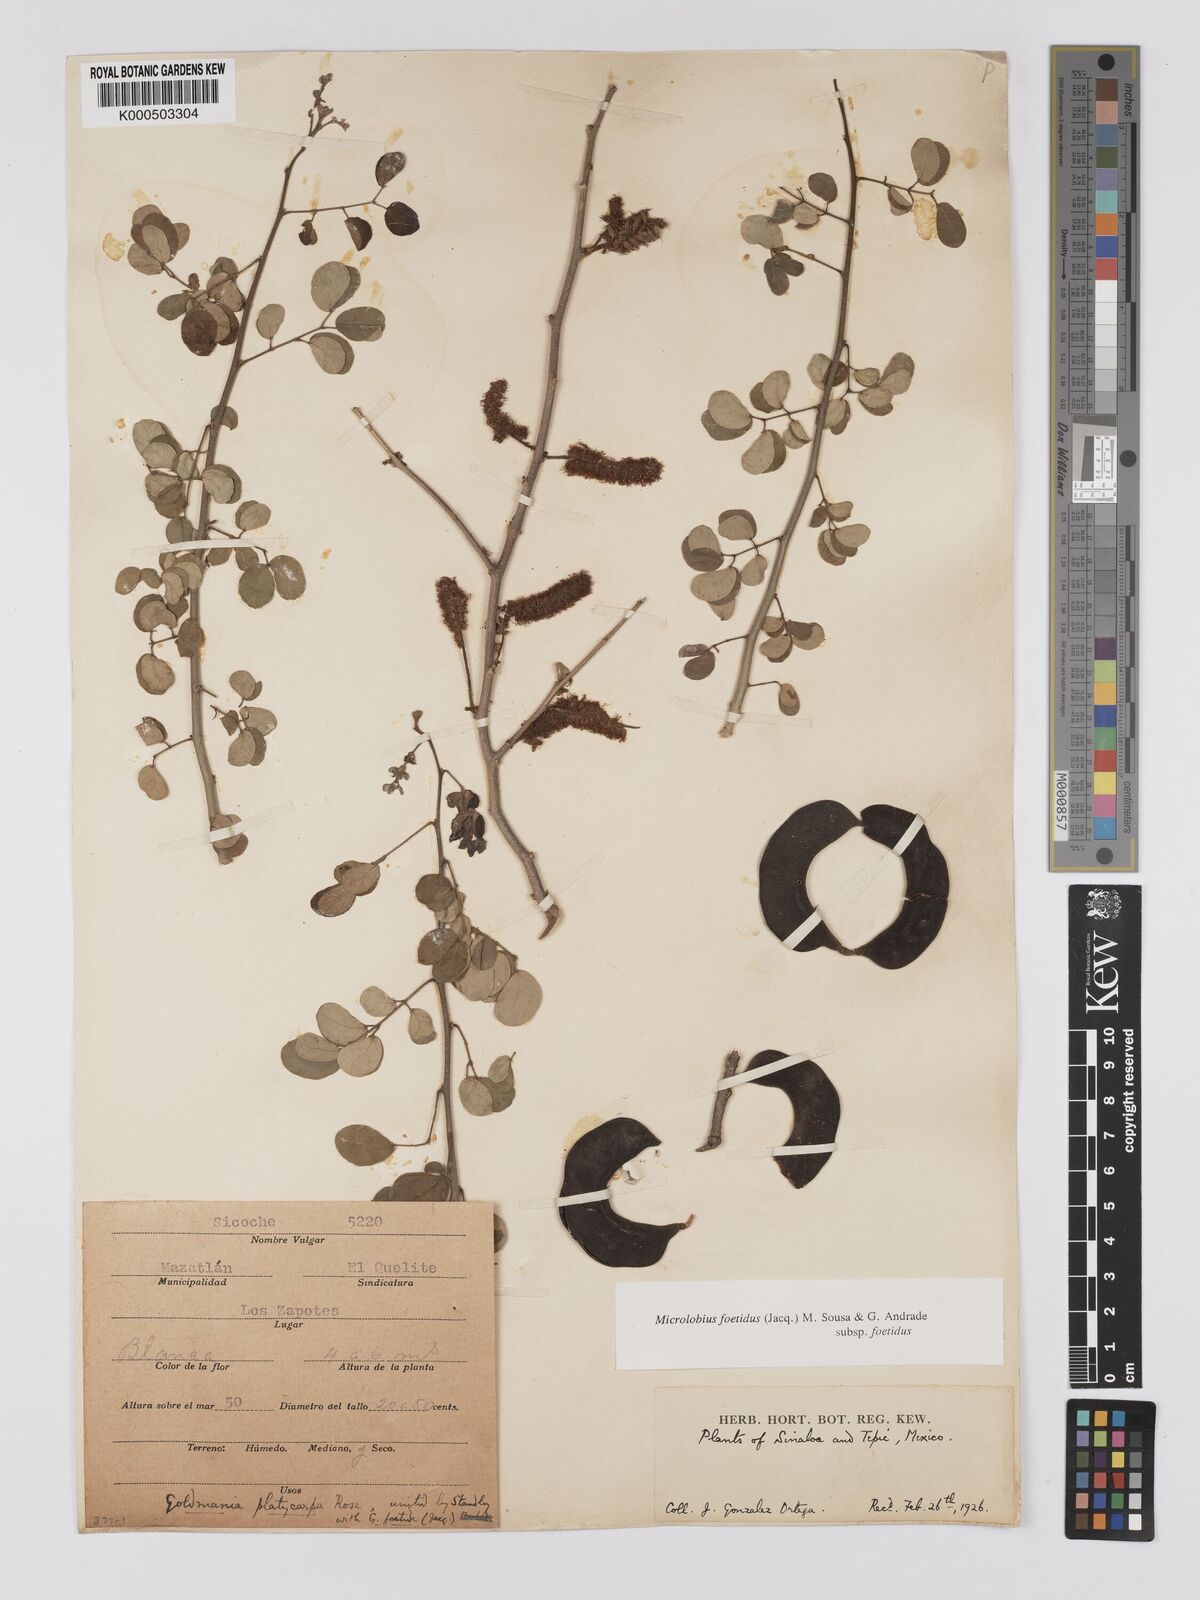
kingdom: Plantae
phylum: Tracheophyta
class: Magnoliopsida
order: Fabales
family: Fabaceae
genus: Microlobius
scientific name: Microlobius foetidus
